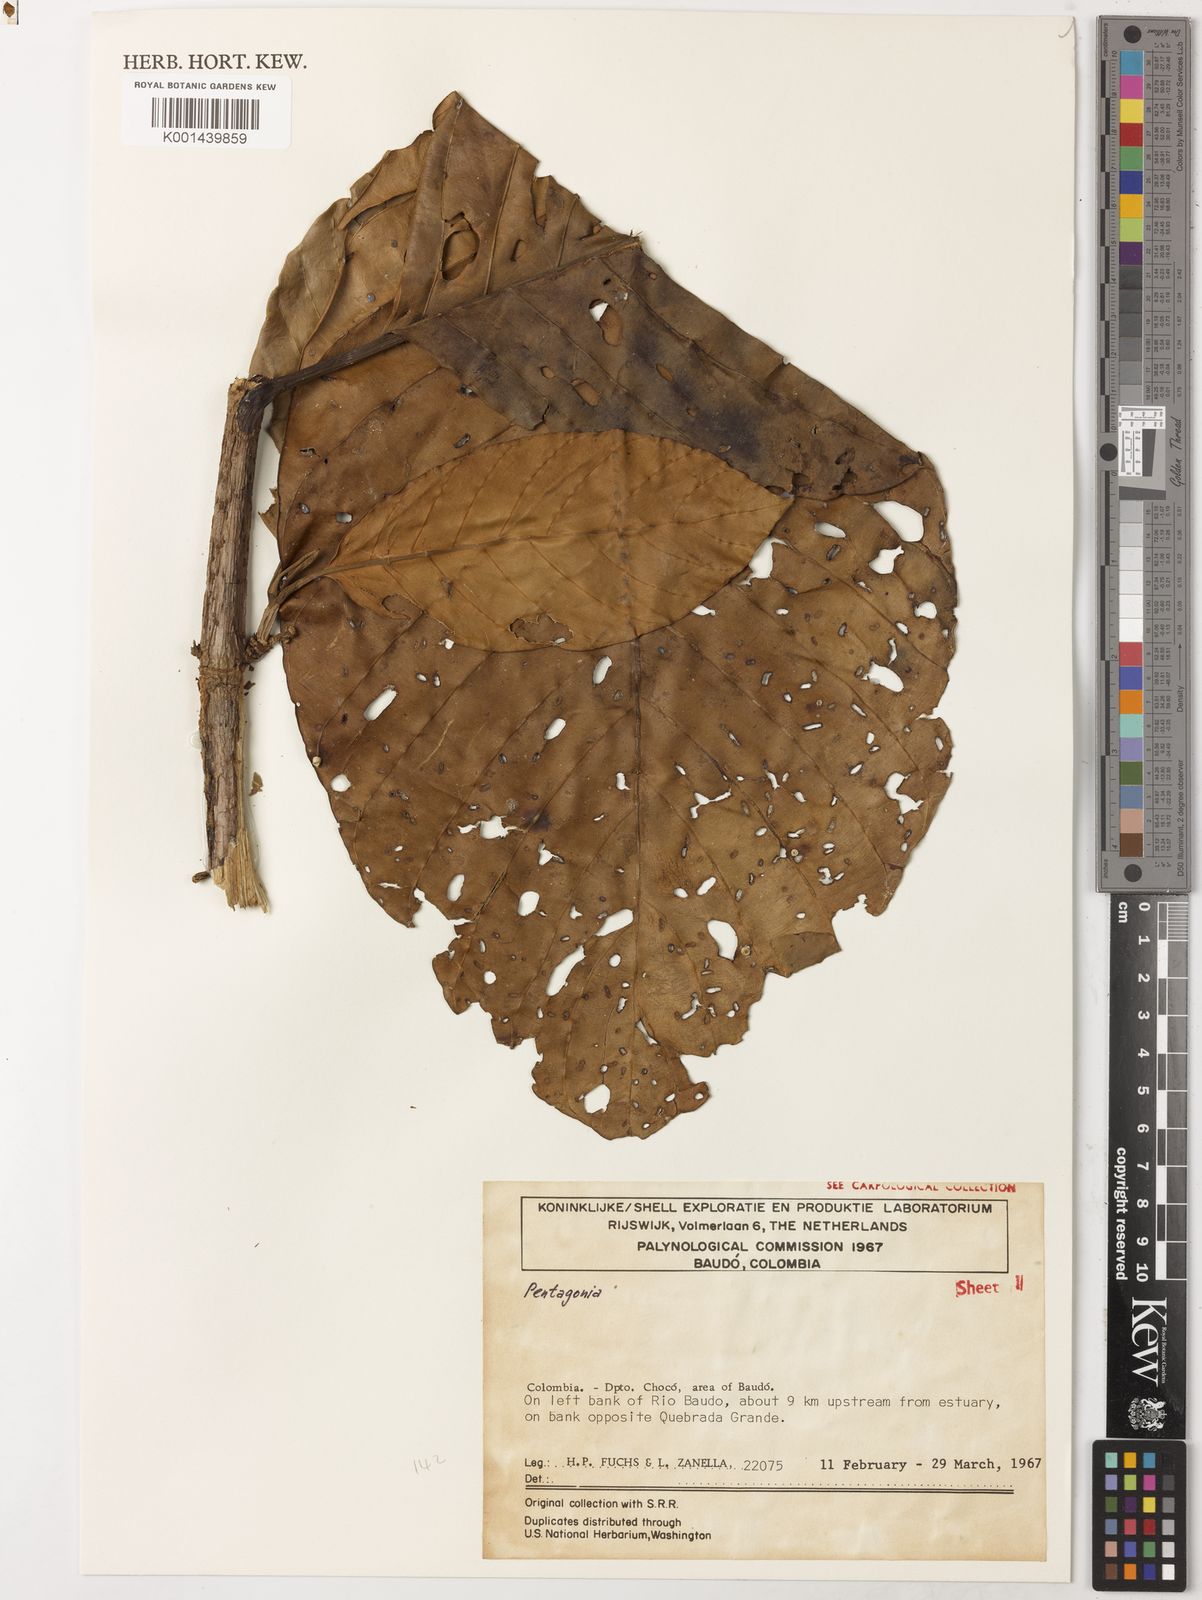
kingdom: Plantae
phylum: Tracheophyta
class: Magnoliopsida
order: Gentianales
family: Rubiaceae
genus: Pentagonia
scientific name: Pentagonia macrophylla
